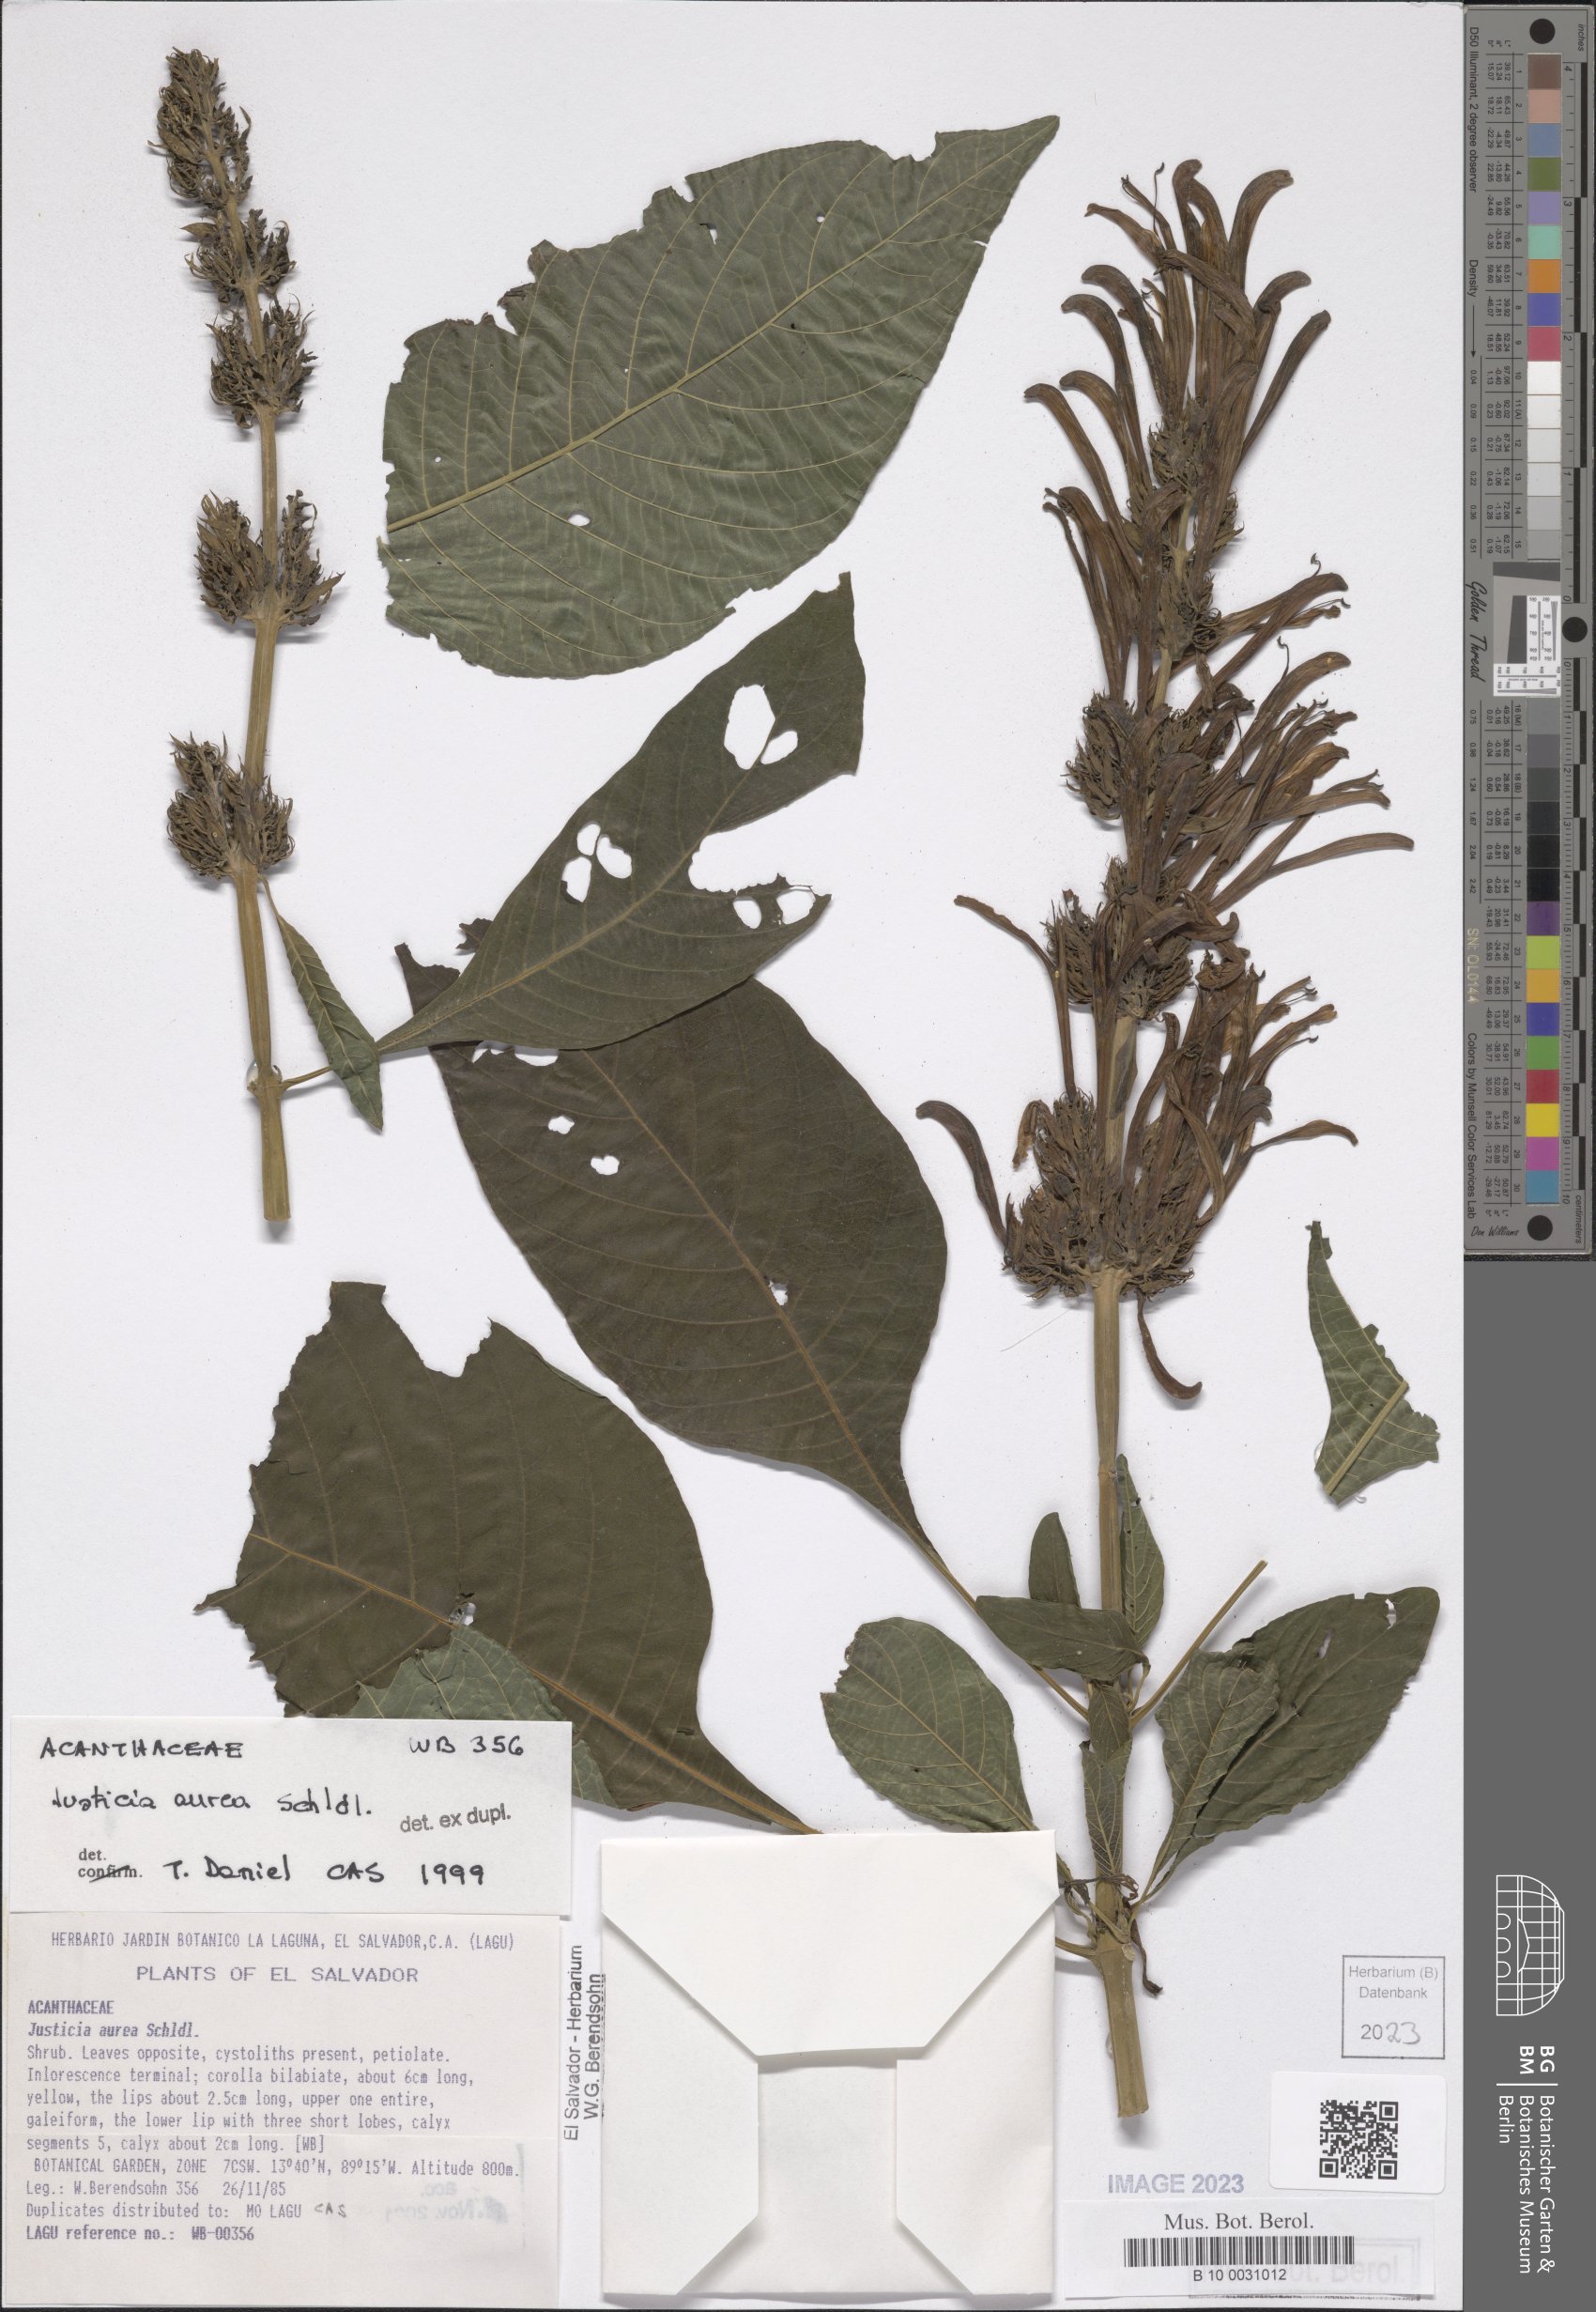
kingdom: Plantae
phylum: Tracheophyta
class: Magnoliopsida
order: Lamiales
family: Acanthaceae
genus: Justicia
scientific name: Justicia aurea
